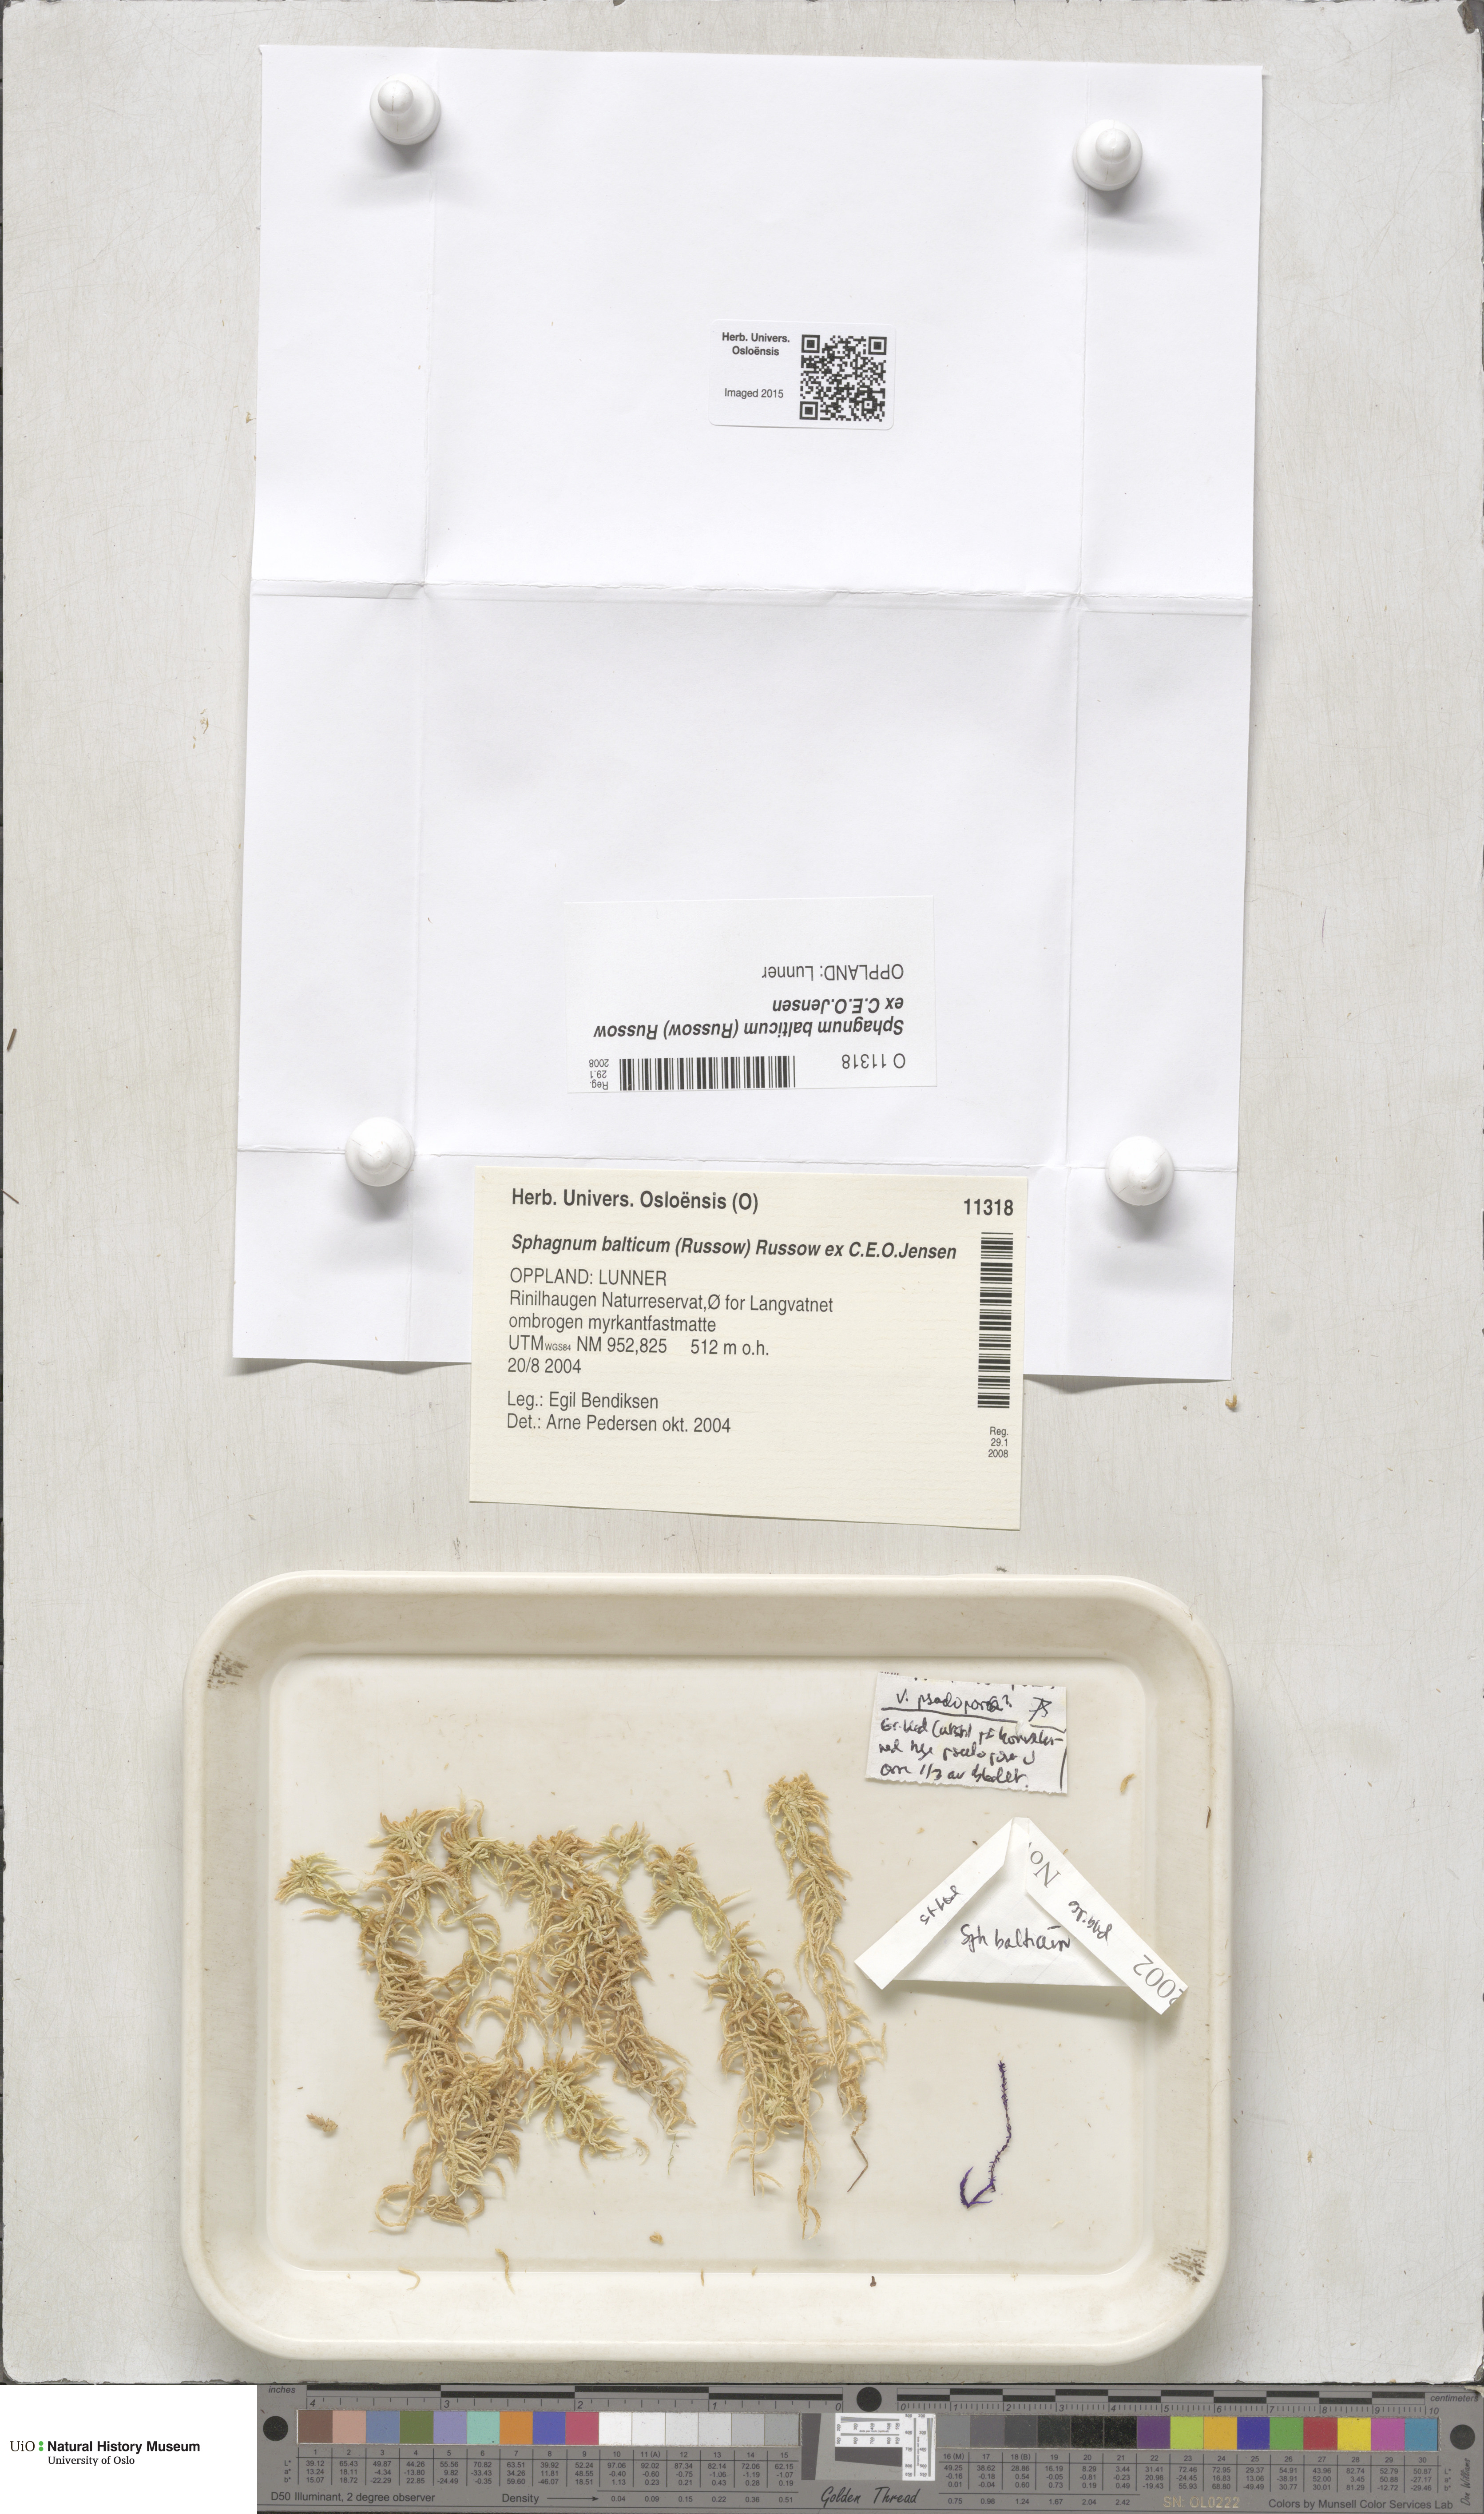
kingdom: Plantae
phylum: Bryophyta
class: Sphagnopsida
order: Sphagnales
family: Sphagnaceae
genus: Sphagnum
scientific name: Sphagnum balticum
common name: Baltic bog-moss
